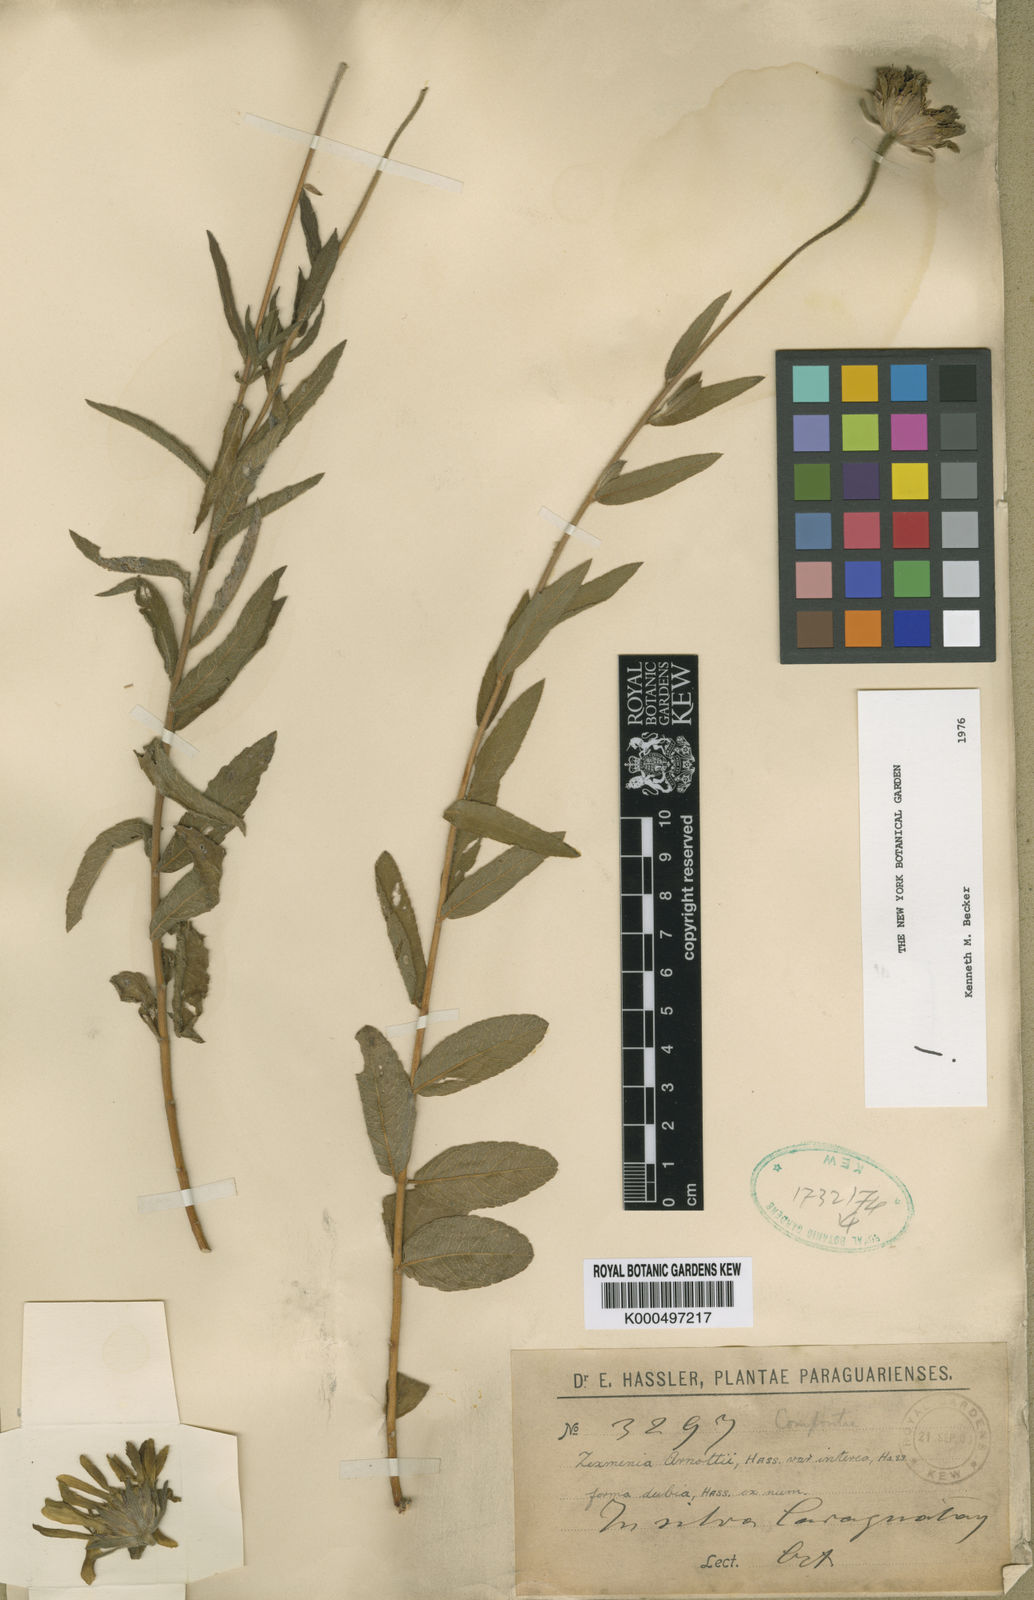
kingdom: Plantae
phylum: Tracheophyta
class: Magnoliopsida
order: Asterales
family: Asteraceae
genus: Dimerostemma
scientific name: Dimerostemma arnottii
